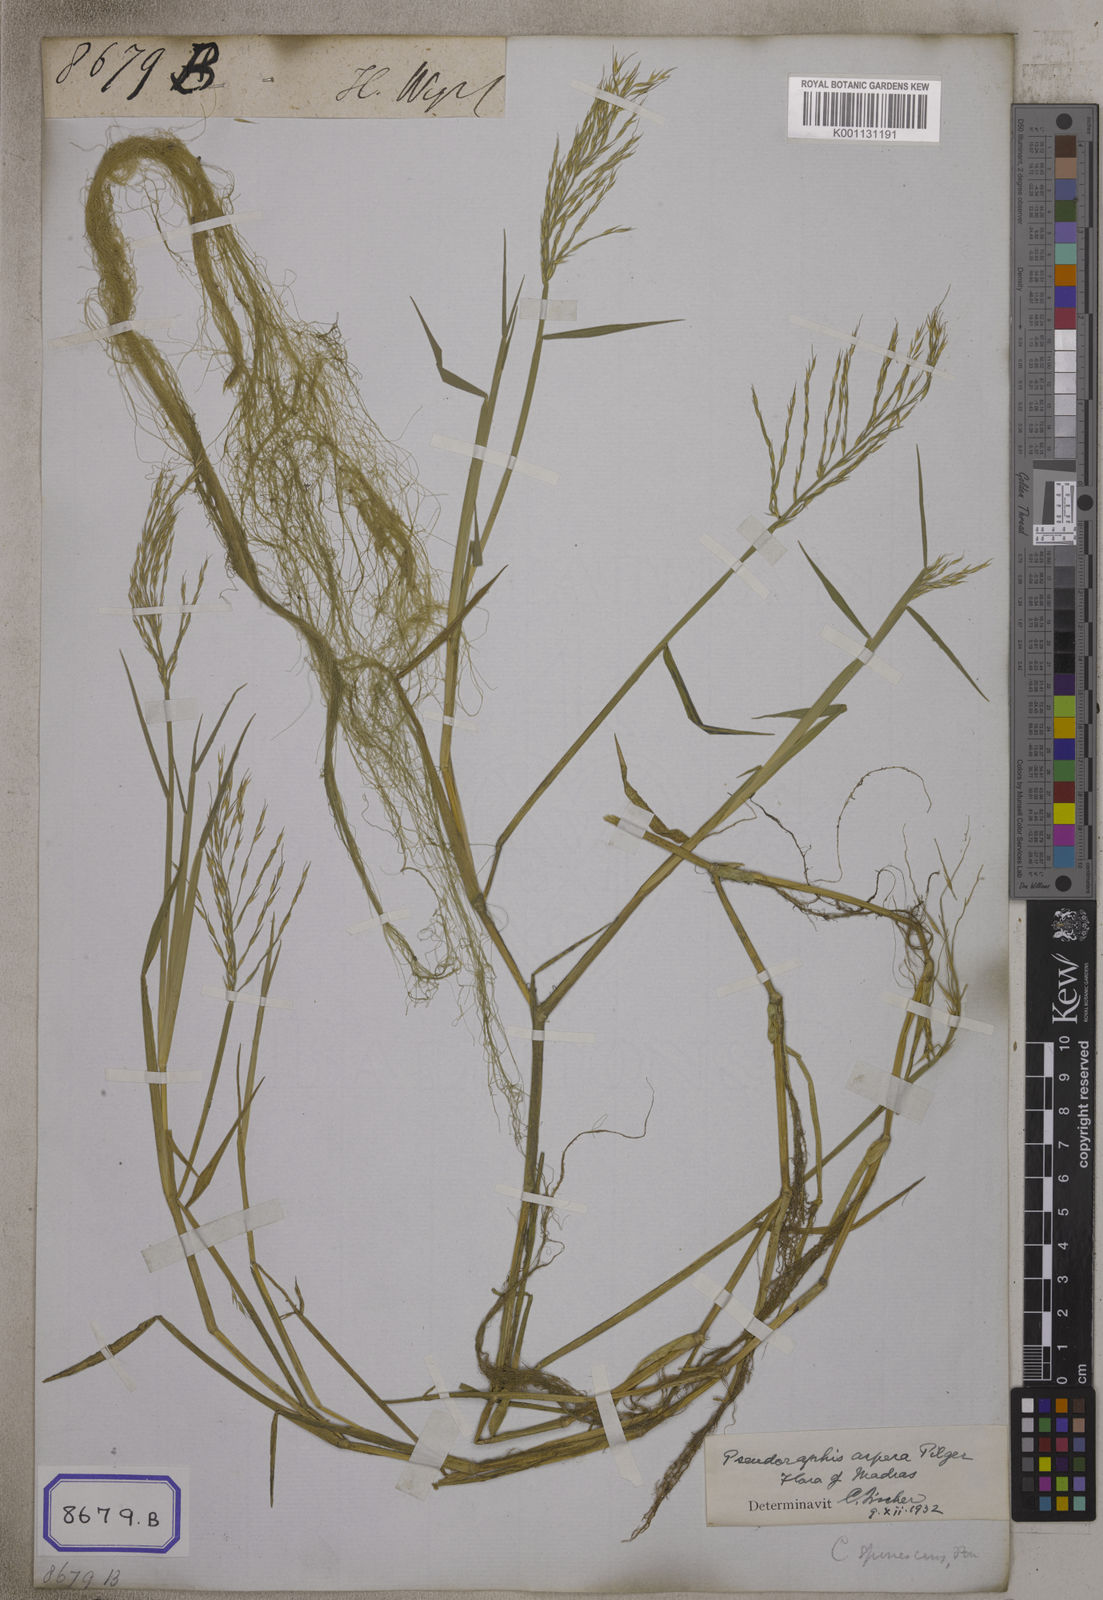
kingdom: Plantae
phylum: Tracheophyta
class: Liliopsida
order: Poales
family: Poaceae
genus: Chamaeraphis
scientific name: Chamaeraphis
